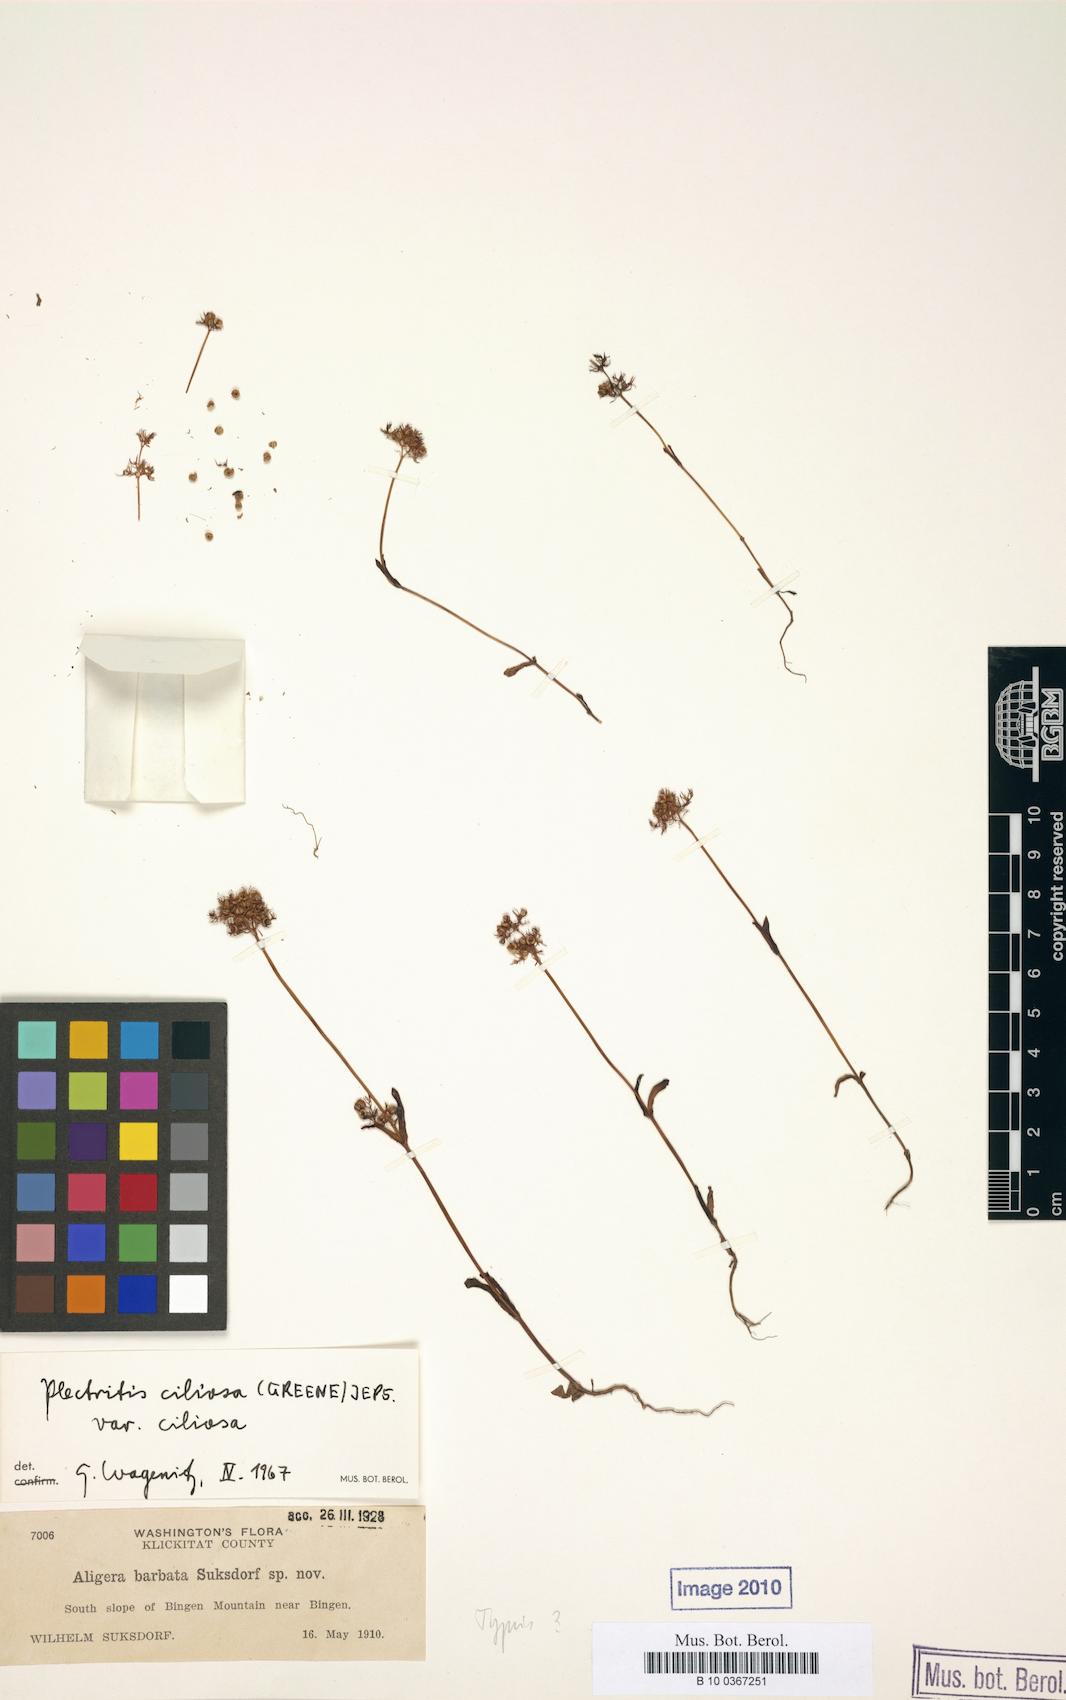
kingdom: Plantae
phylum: Tracheophyta
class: Magnoliopsida
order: Dipsacales
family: Caprifoliaceae
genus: Plectritis
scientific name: Plectritis ciliosa
